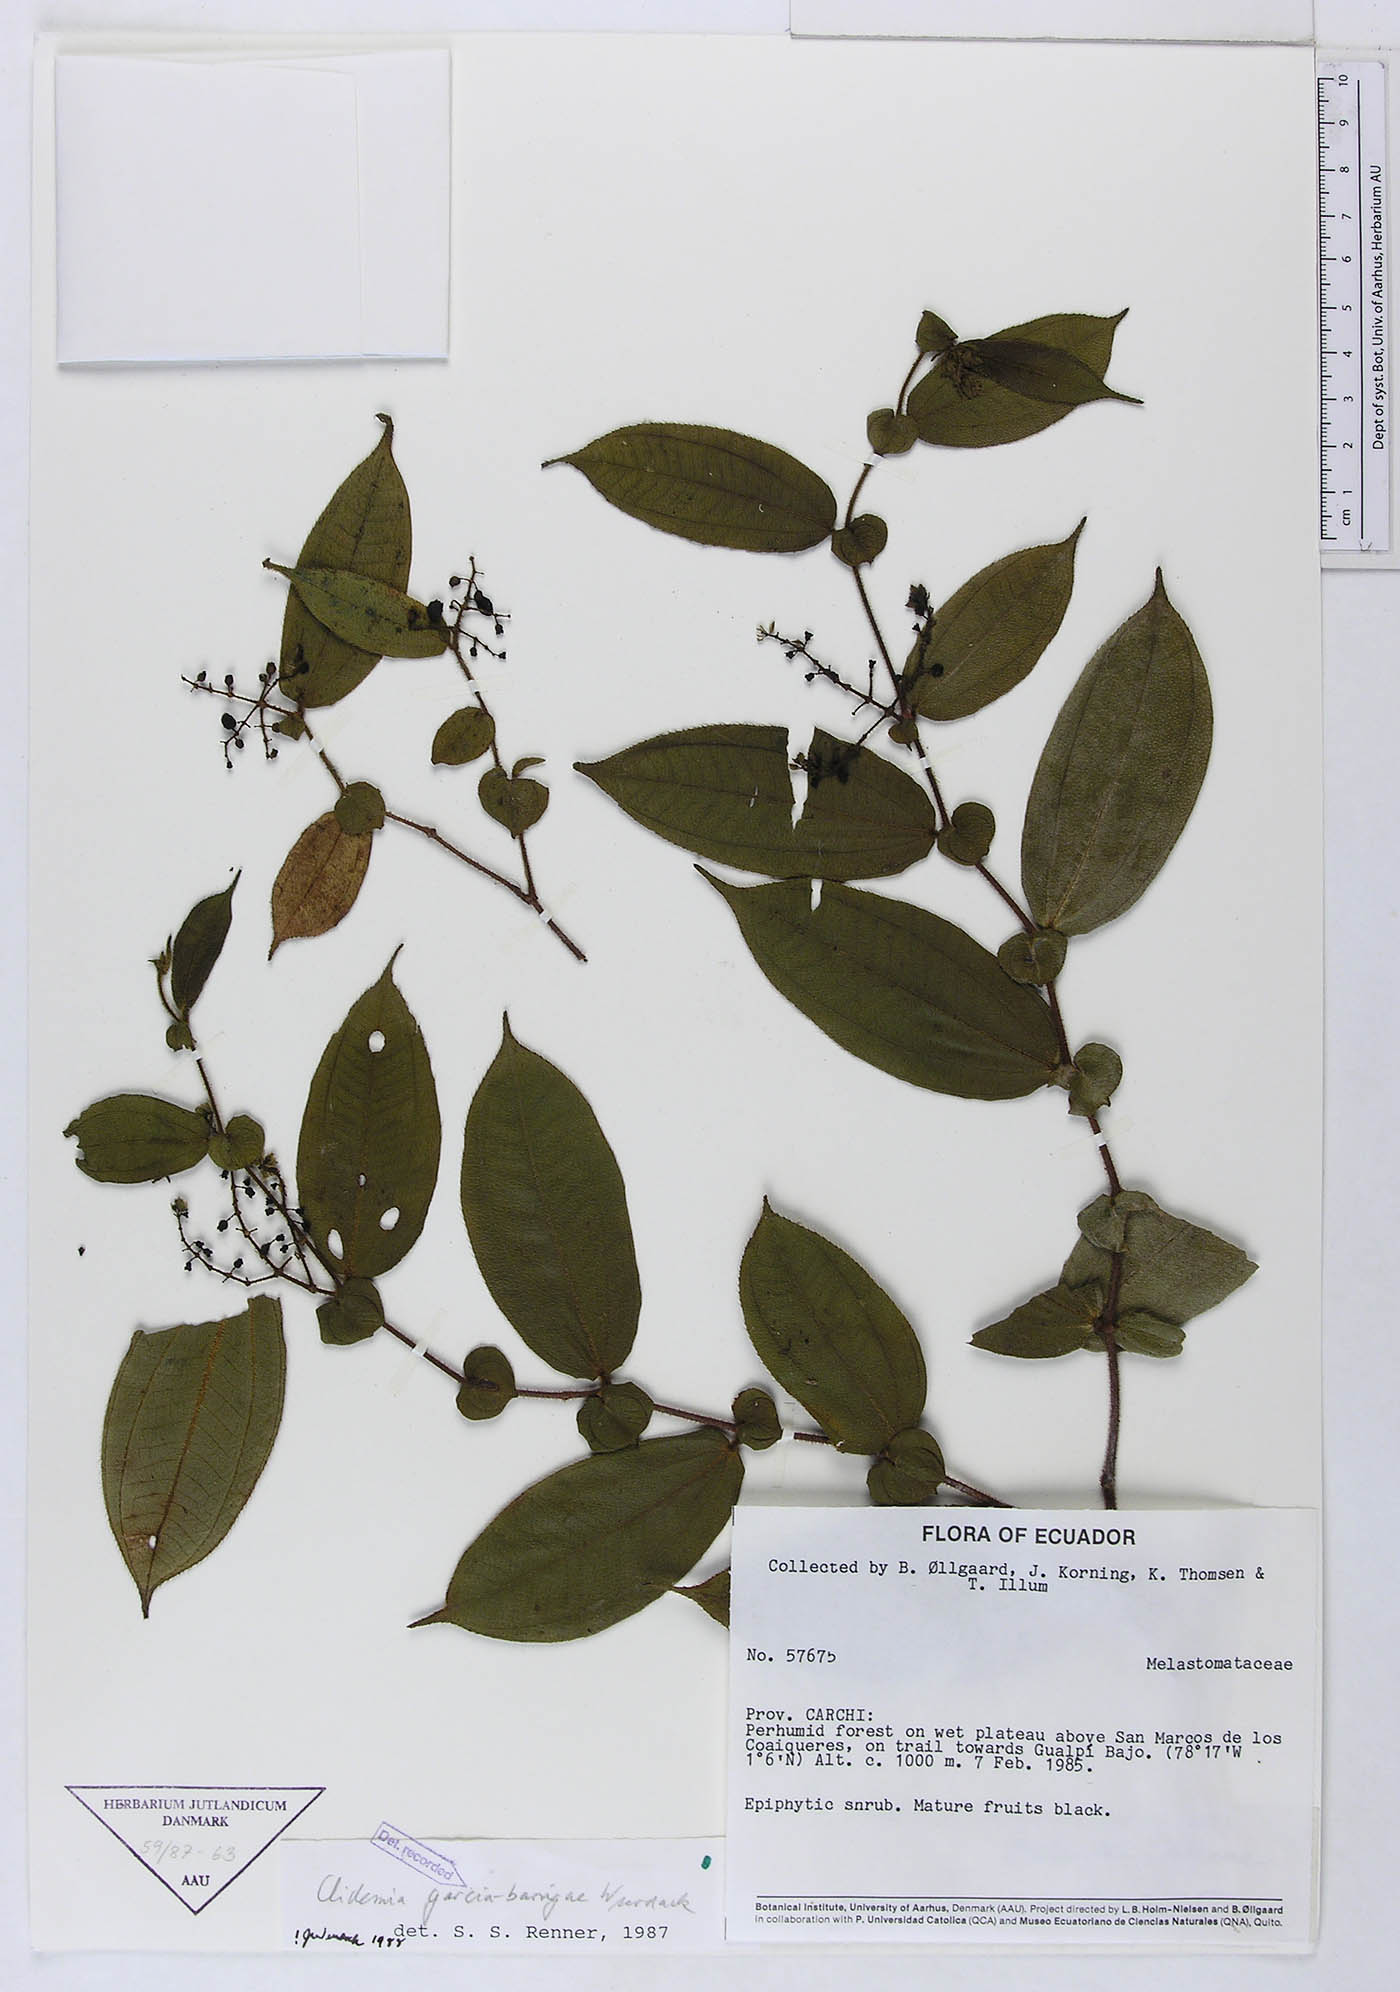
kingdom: Plantae
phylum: Tracheophyta
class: Magnoliopsida
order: Myrtales
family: Melastomataceae
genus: Miconia
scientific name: Miconia garcia-barrigae
